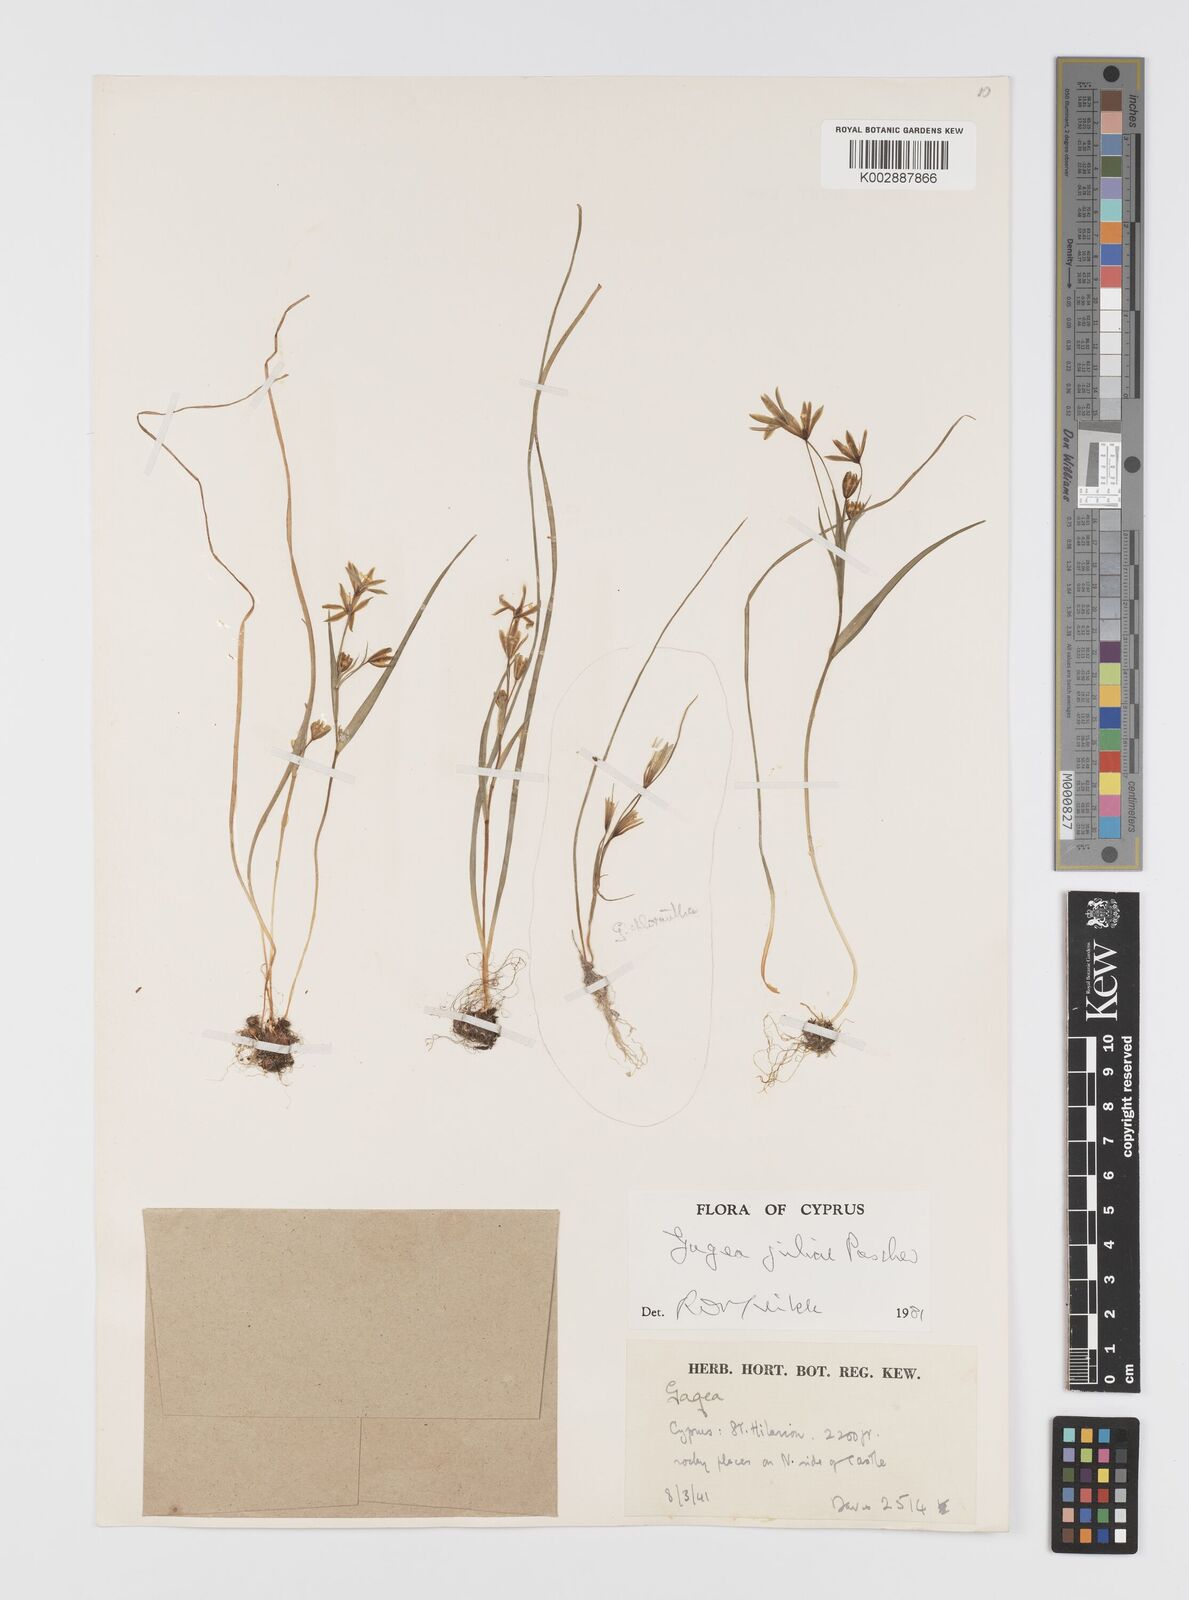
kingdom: Plantae
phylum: Tracheophyta
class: Liliopsida
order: Liliales
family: Liliaceae
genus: Gagea
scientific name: Gagea juliae
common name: Julia’s gagea
